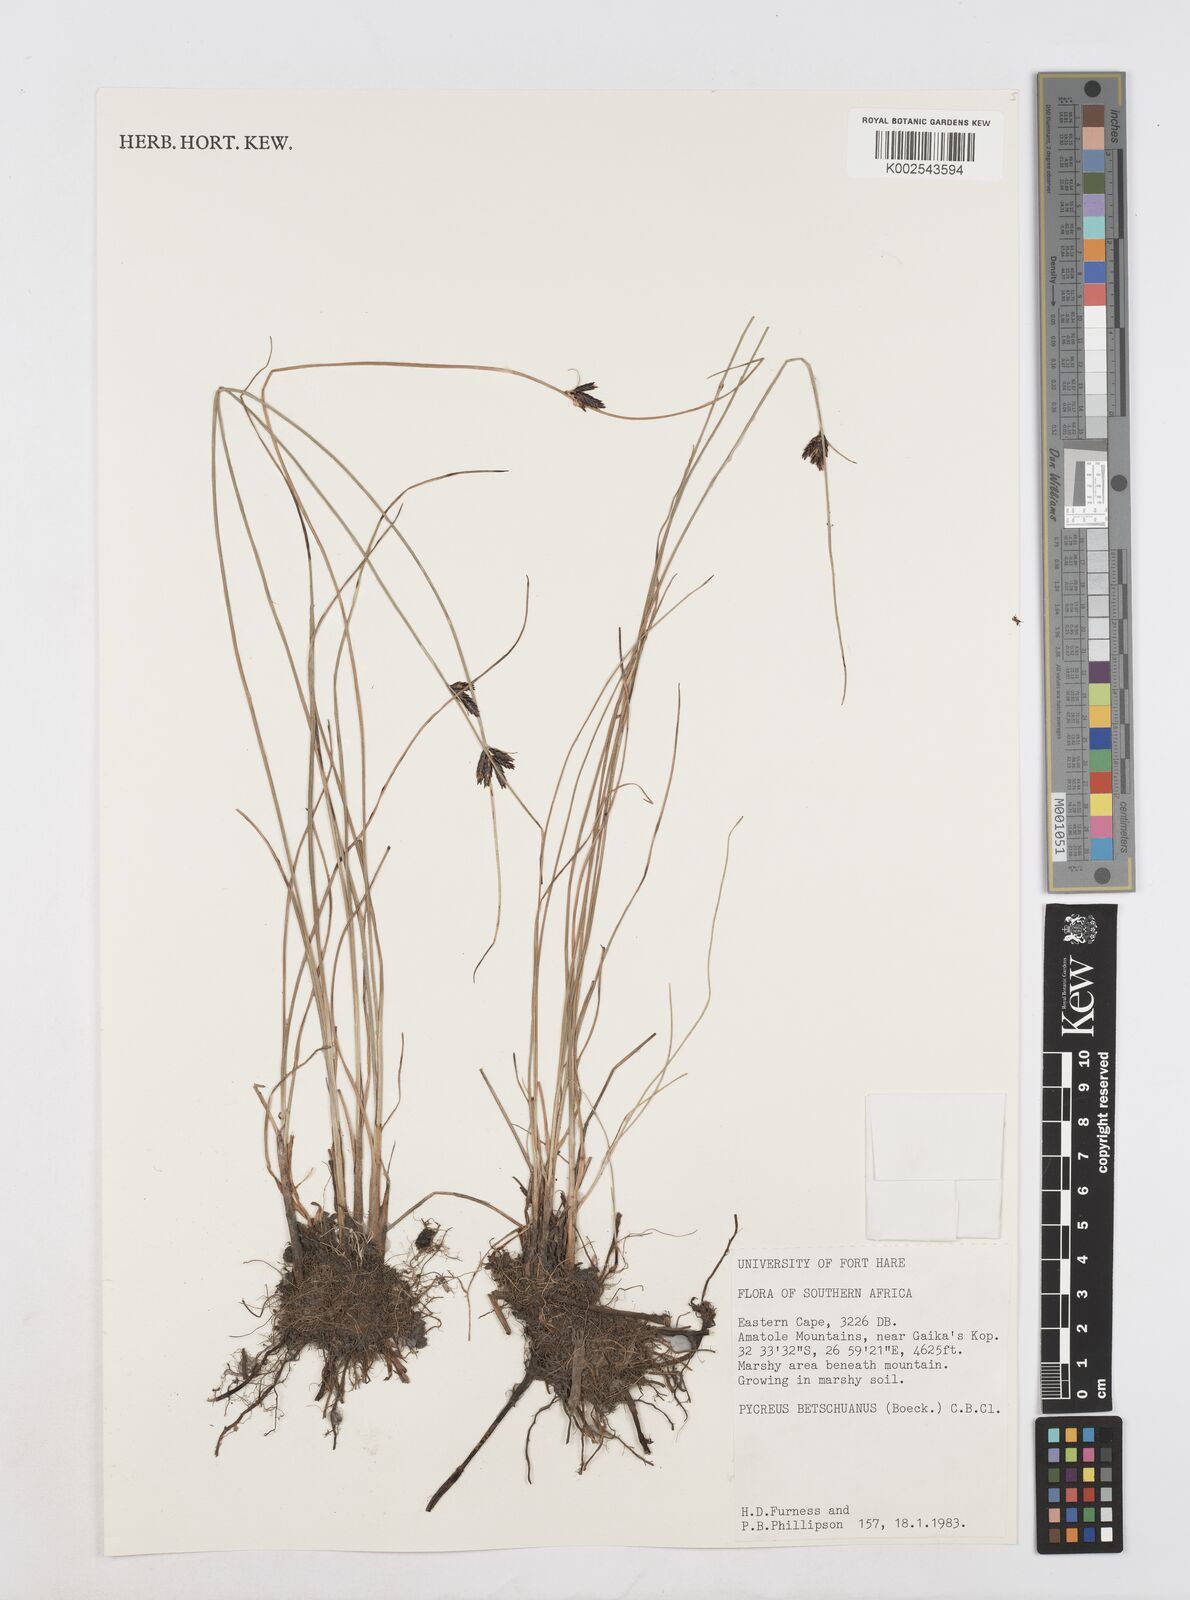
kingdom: Plantae
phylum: Tracheophyta
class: Liliopsida
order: Poales
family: Cyperaceae
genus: Cyperus
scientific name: Cyperus aethiops
